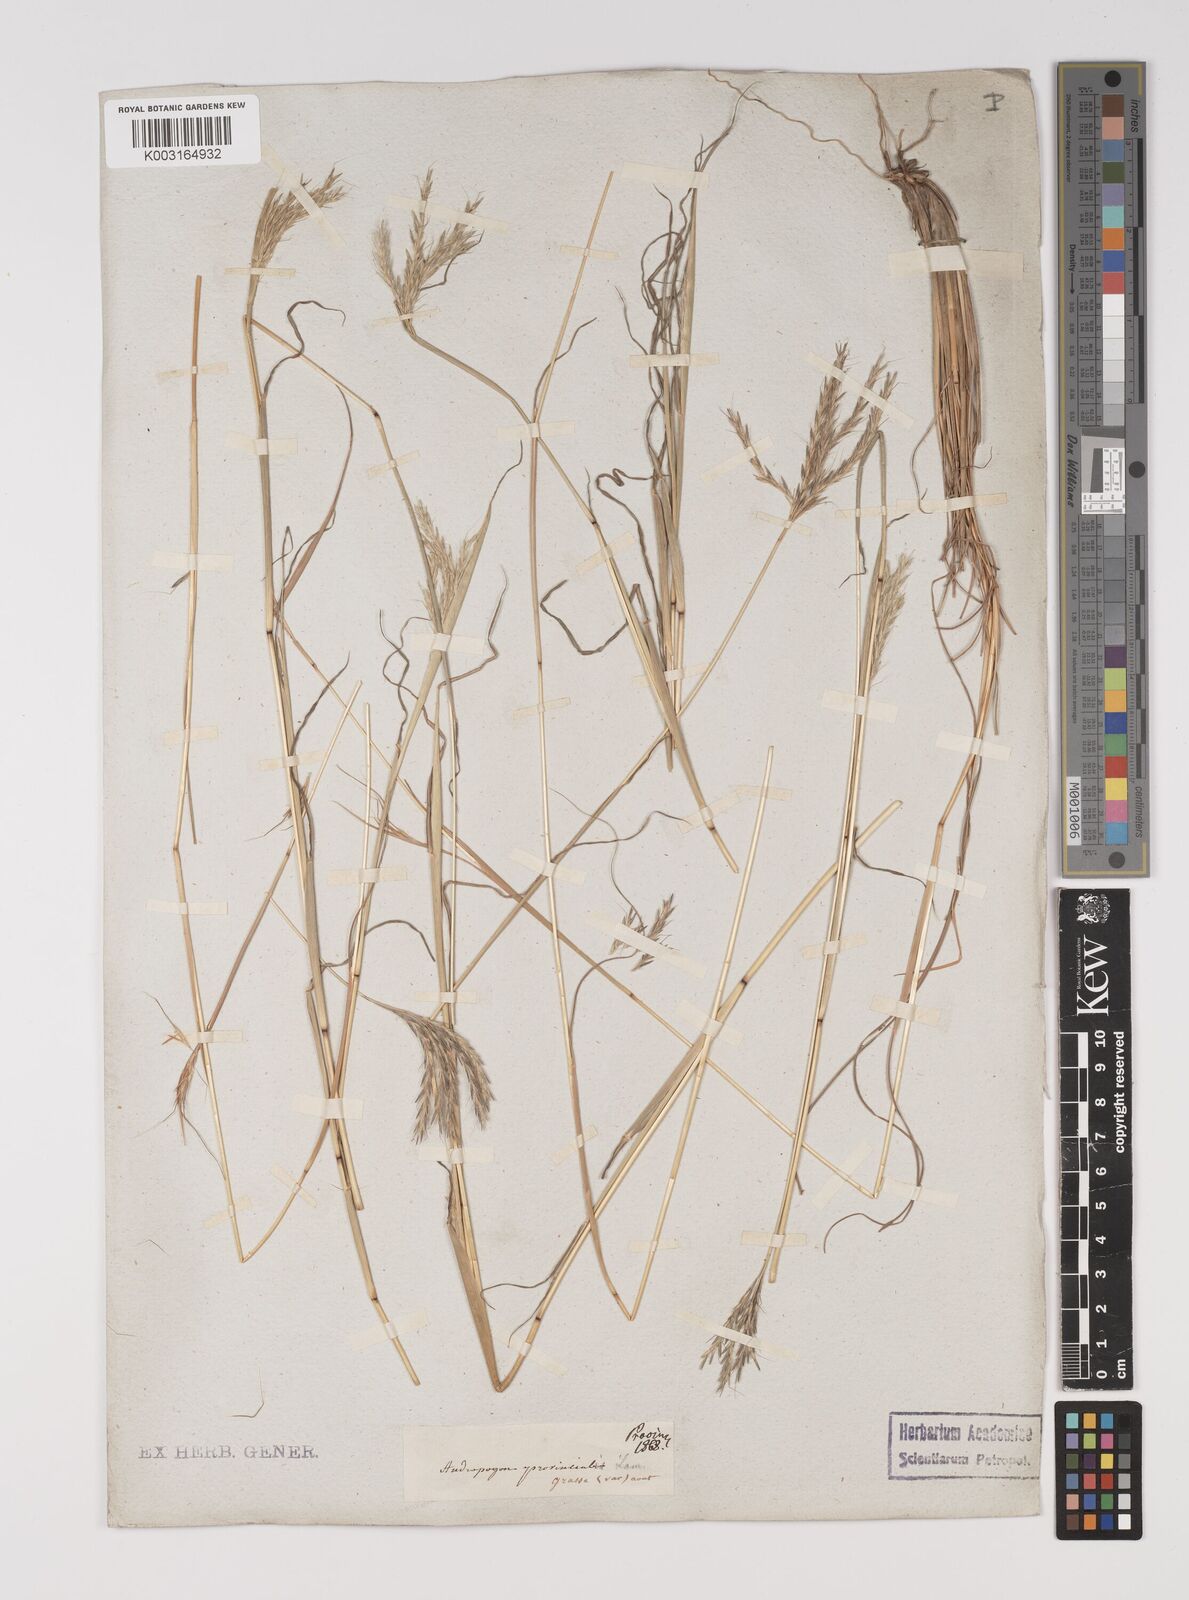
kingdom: Plantae
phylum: Tracheophyta
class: Liliopsida
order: Poales
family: Poaceae
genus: Bothriochloa
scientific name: Bothriochloa ischaemum
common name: Yellow bluestem
